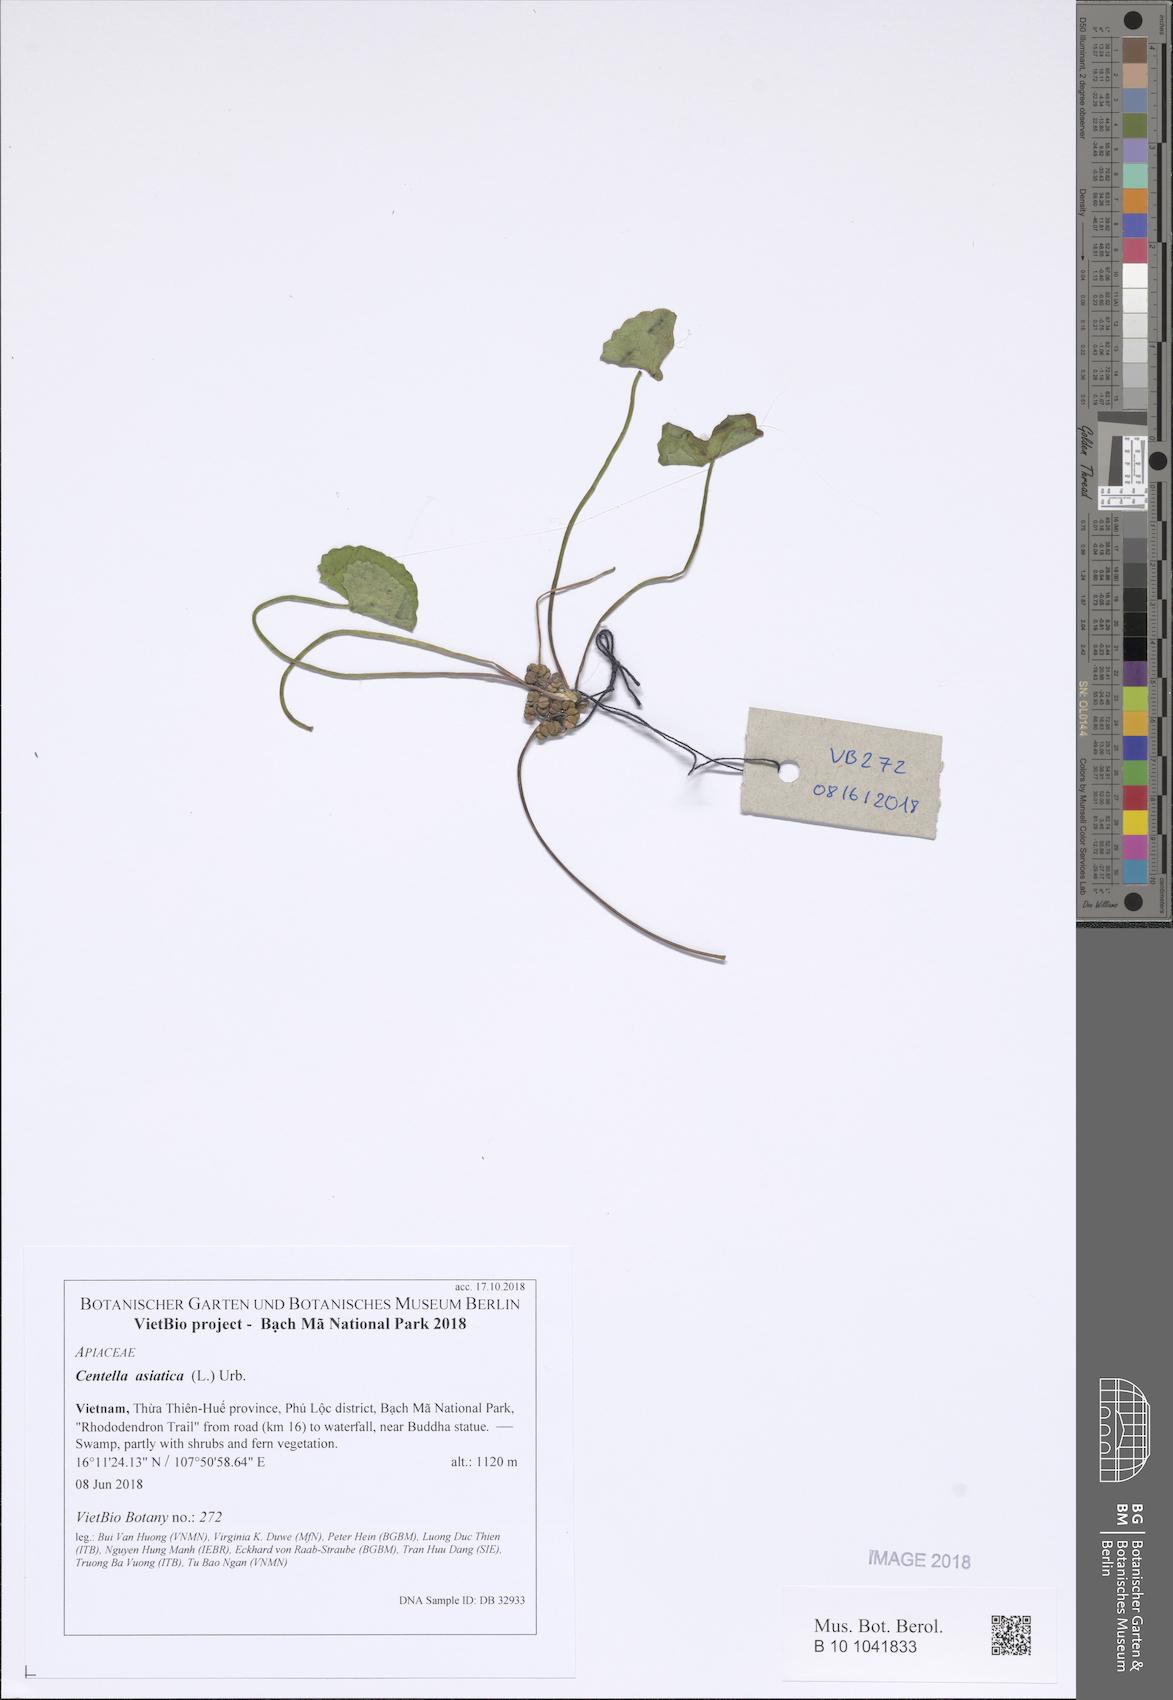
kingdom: Plantae
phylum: Tracheophyta
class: Magnoliopsida
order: Apiales
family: Apiaceae
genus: Centella
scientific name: Centella asiatica
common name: Spadeleaf
